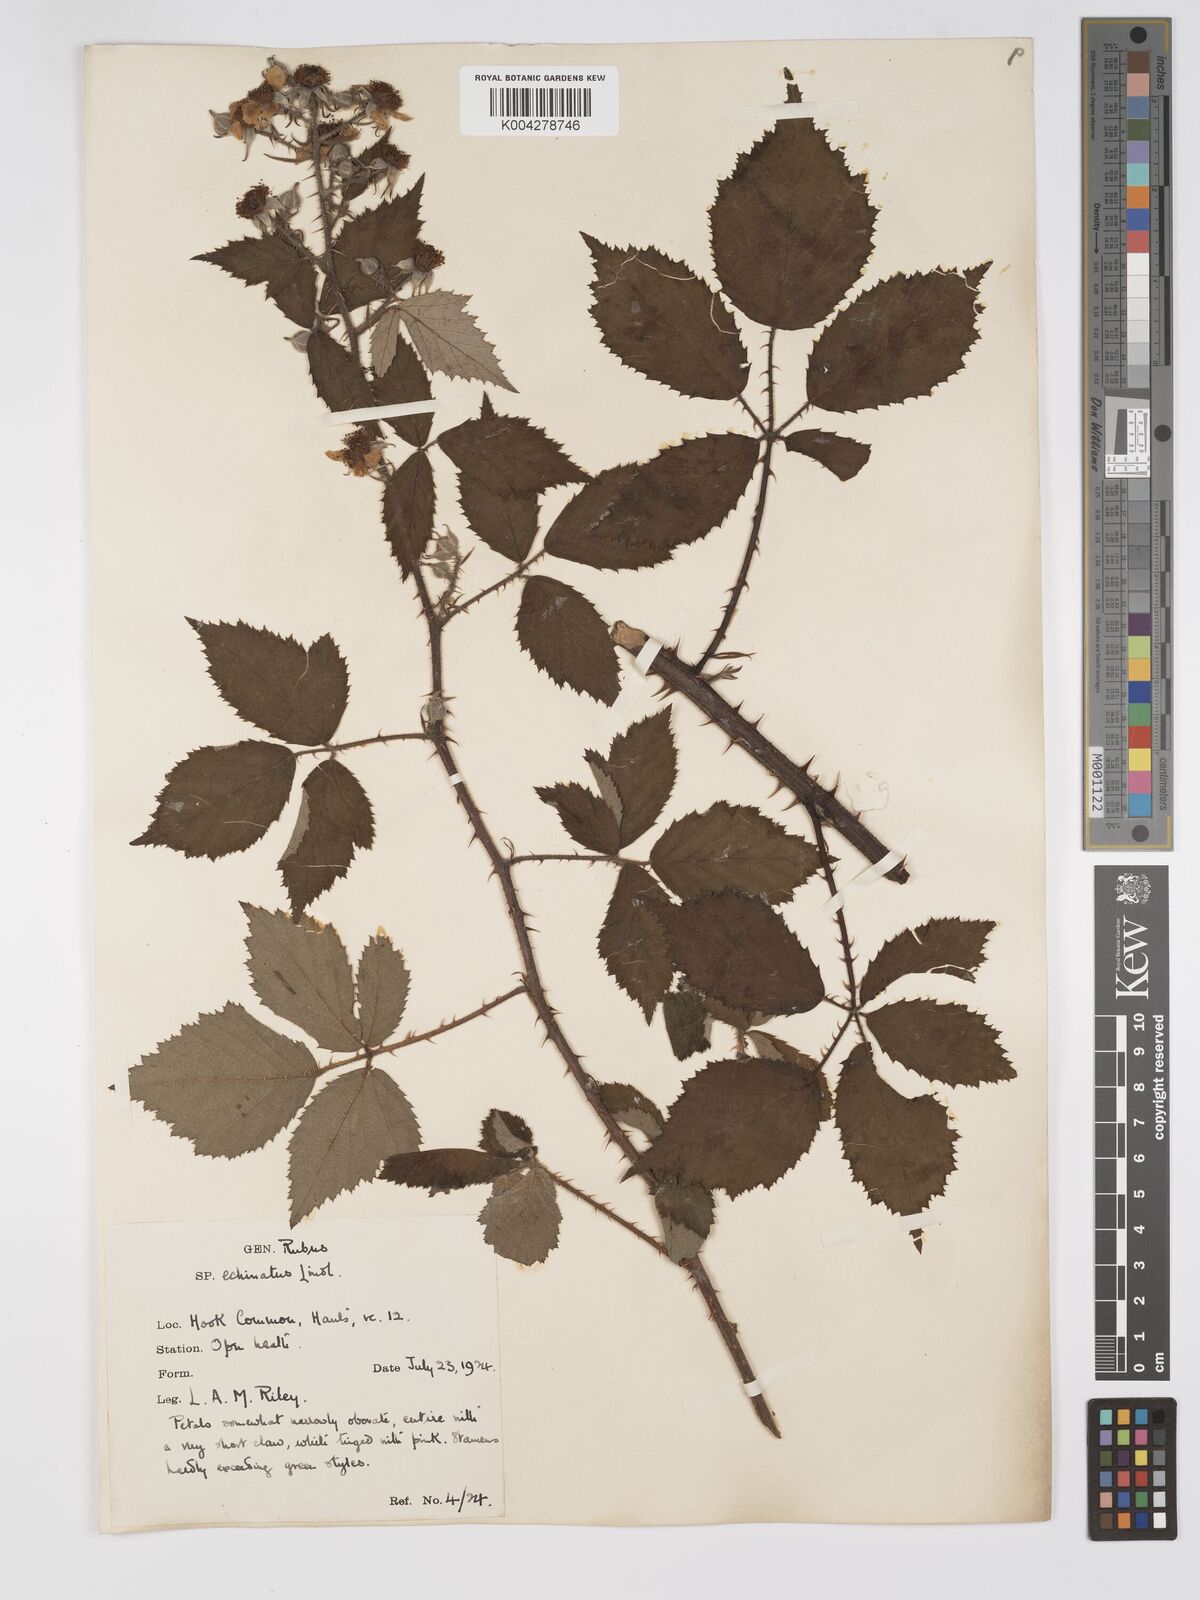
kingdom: Plantae
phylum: Tracheophyta
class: Magnoliopsida
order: Rosales
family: Rosaceae
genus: Rubus
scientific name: Rubus echinatus
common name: Echinate bramble
